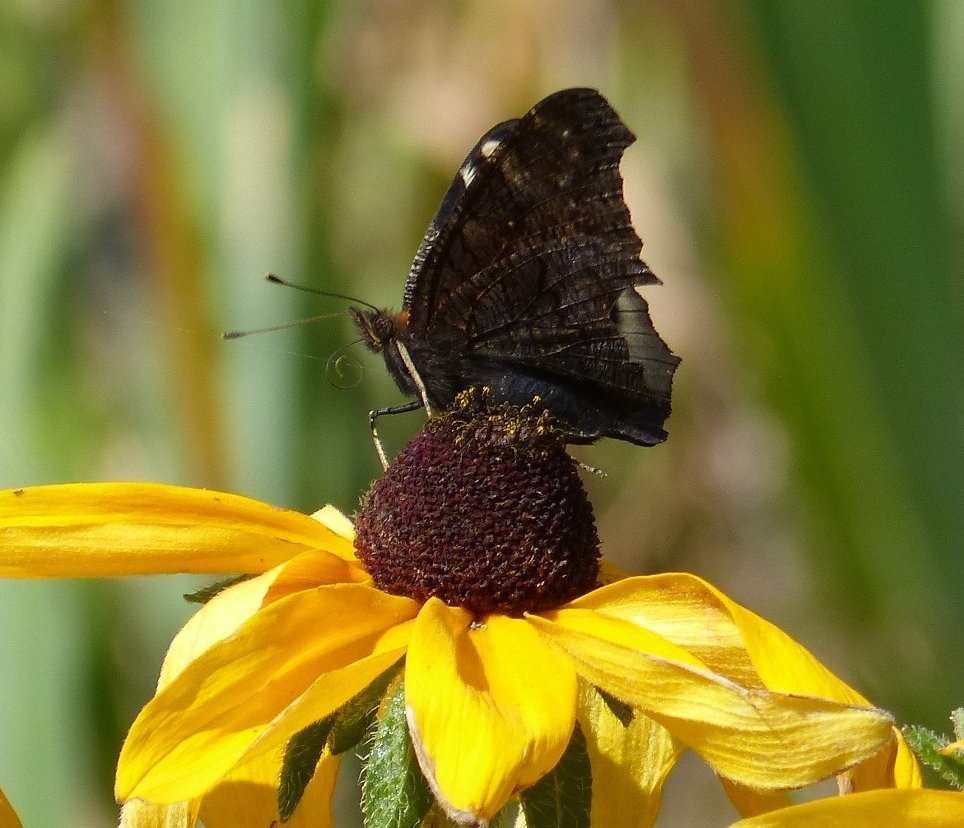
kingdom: Animalia
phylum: Arthropoda
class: Insecta
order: Lepidoptera
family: Nymphalidae
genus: Aglais
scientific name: Aglais io
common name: European Peacock
